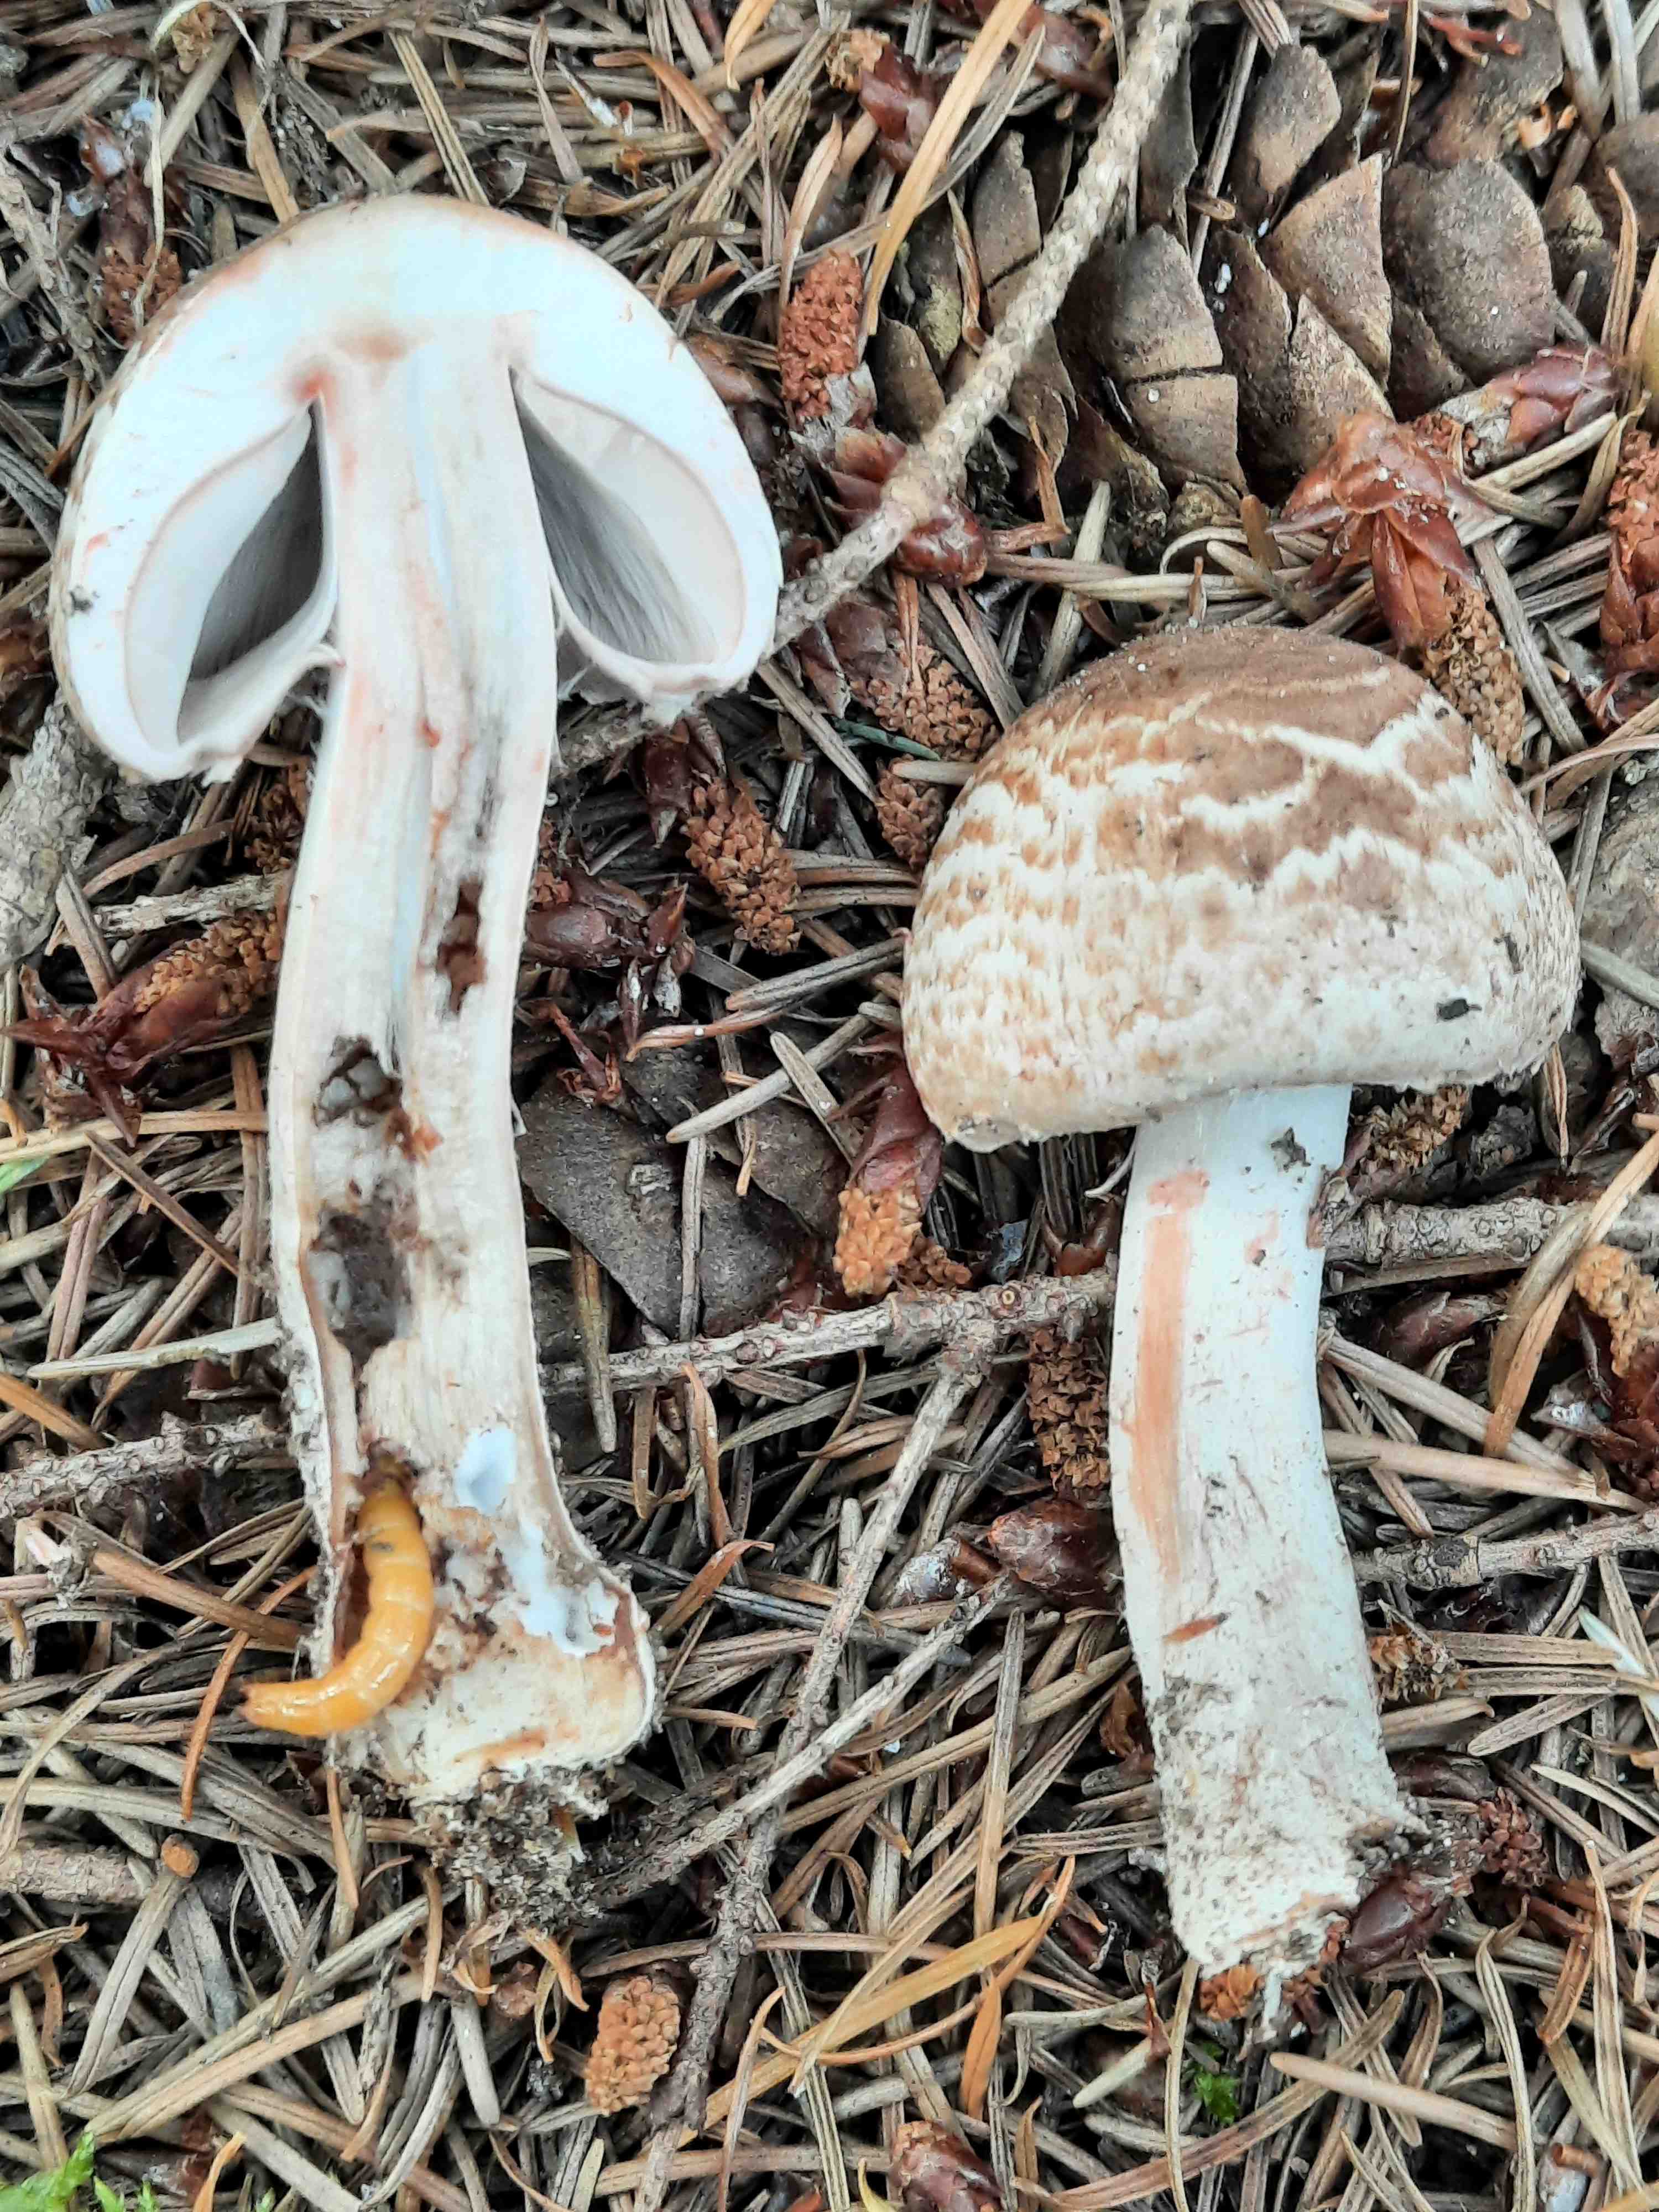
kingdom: Fungi
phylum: Basidiomycota
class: Agaricomycetes
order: Agaricales
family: Agaricaceae
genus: Agaricus
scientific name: Agaricus sylvaticus
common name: lille blod-champignon
